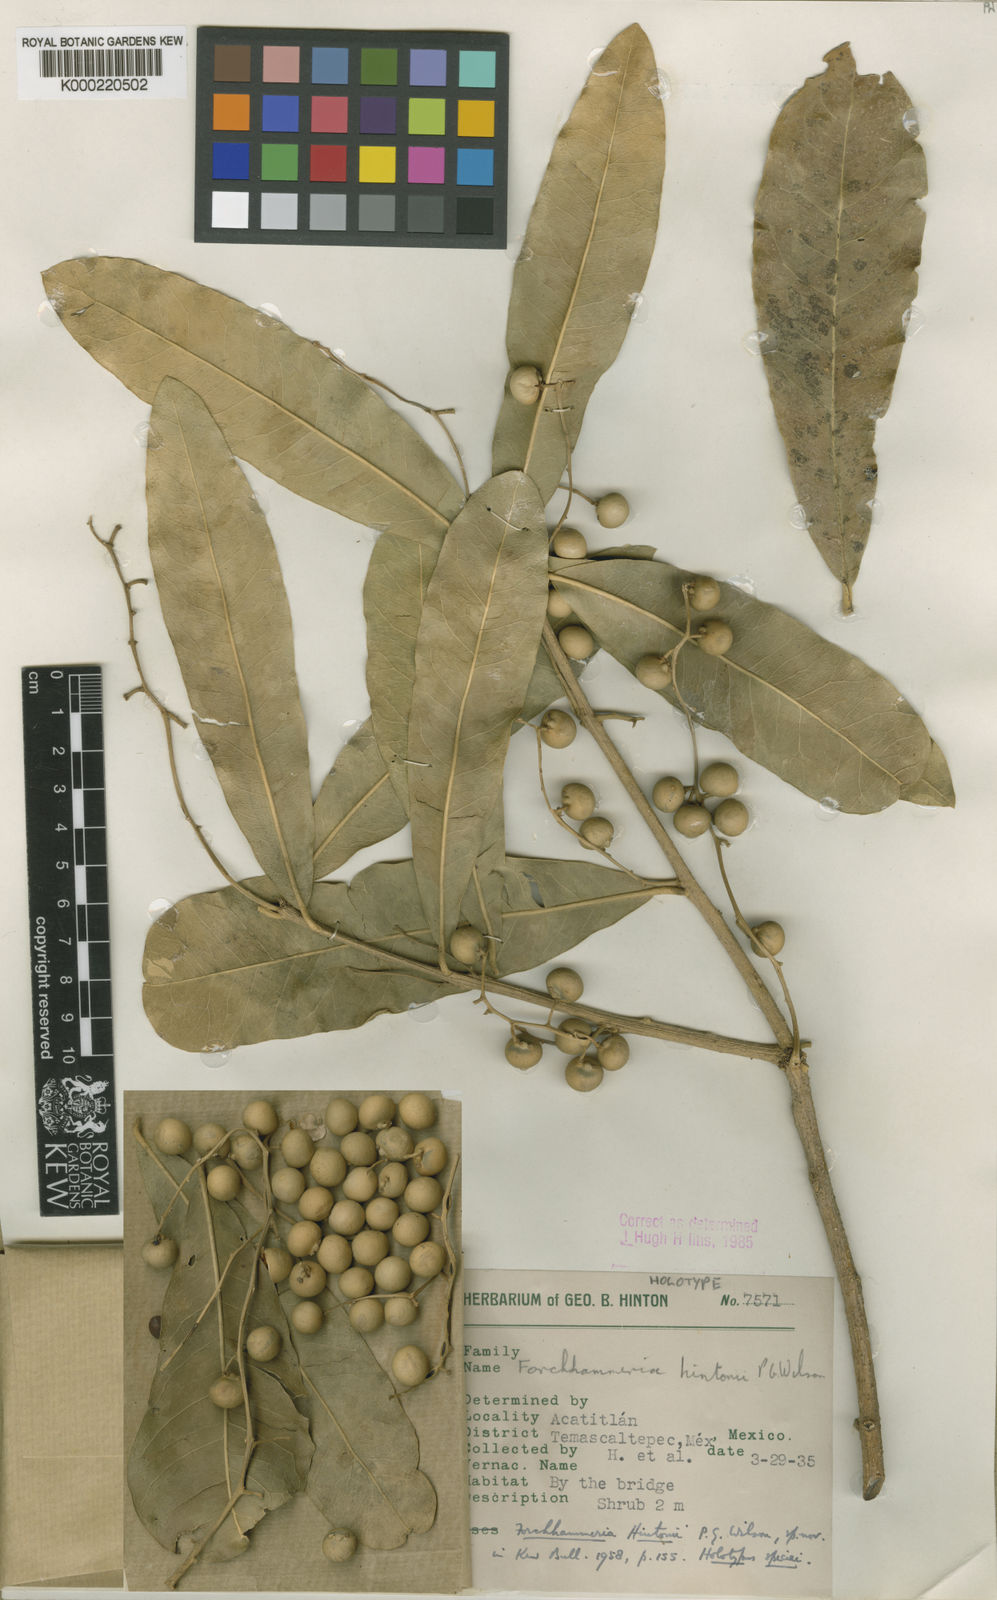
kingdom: Plantae
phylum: Tracheophyta
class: Magnoliopsida
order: Brassicales
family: Stixaceae
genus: Forchhammeria
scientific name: Forchhammeria hintonii
